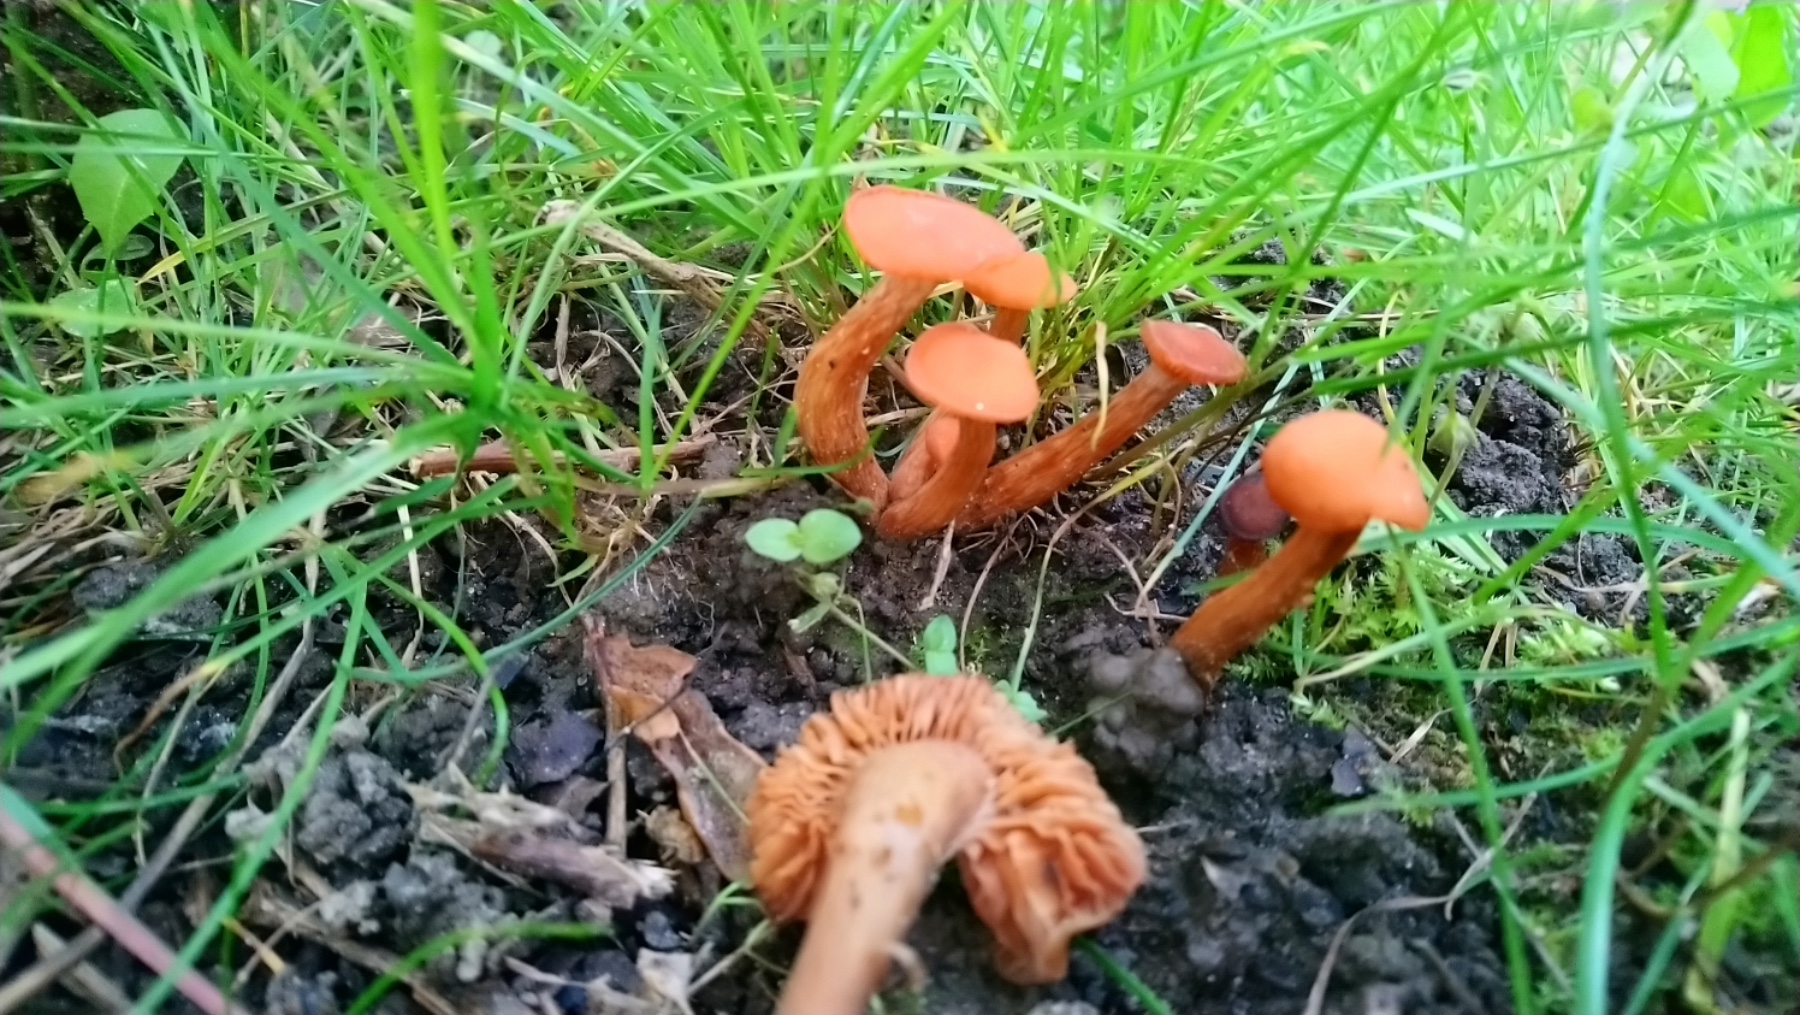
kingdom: Fungi
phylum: Basidiomycota
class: Agaricomycetes
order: Agaricales
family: Hydnangiaceae
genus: Laccaria
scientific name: Laccaria
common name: ametysthat
